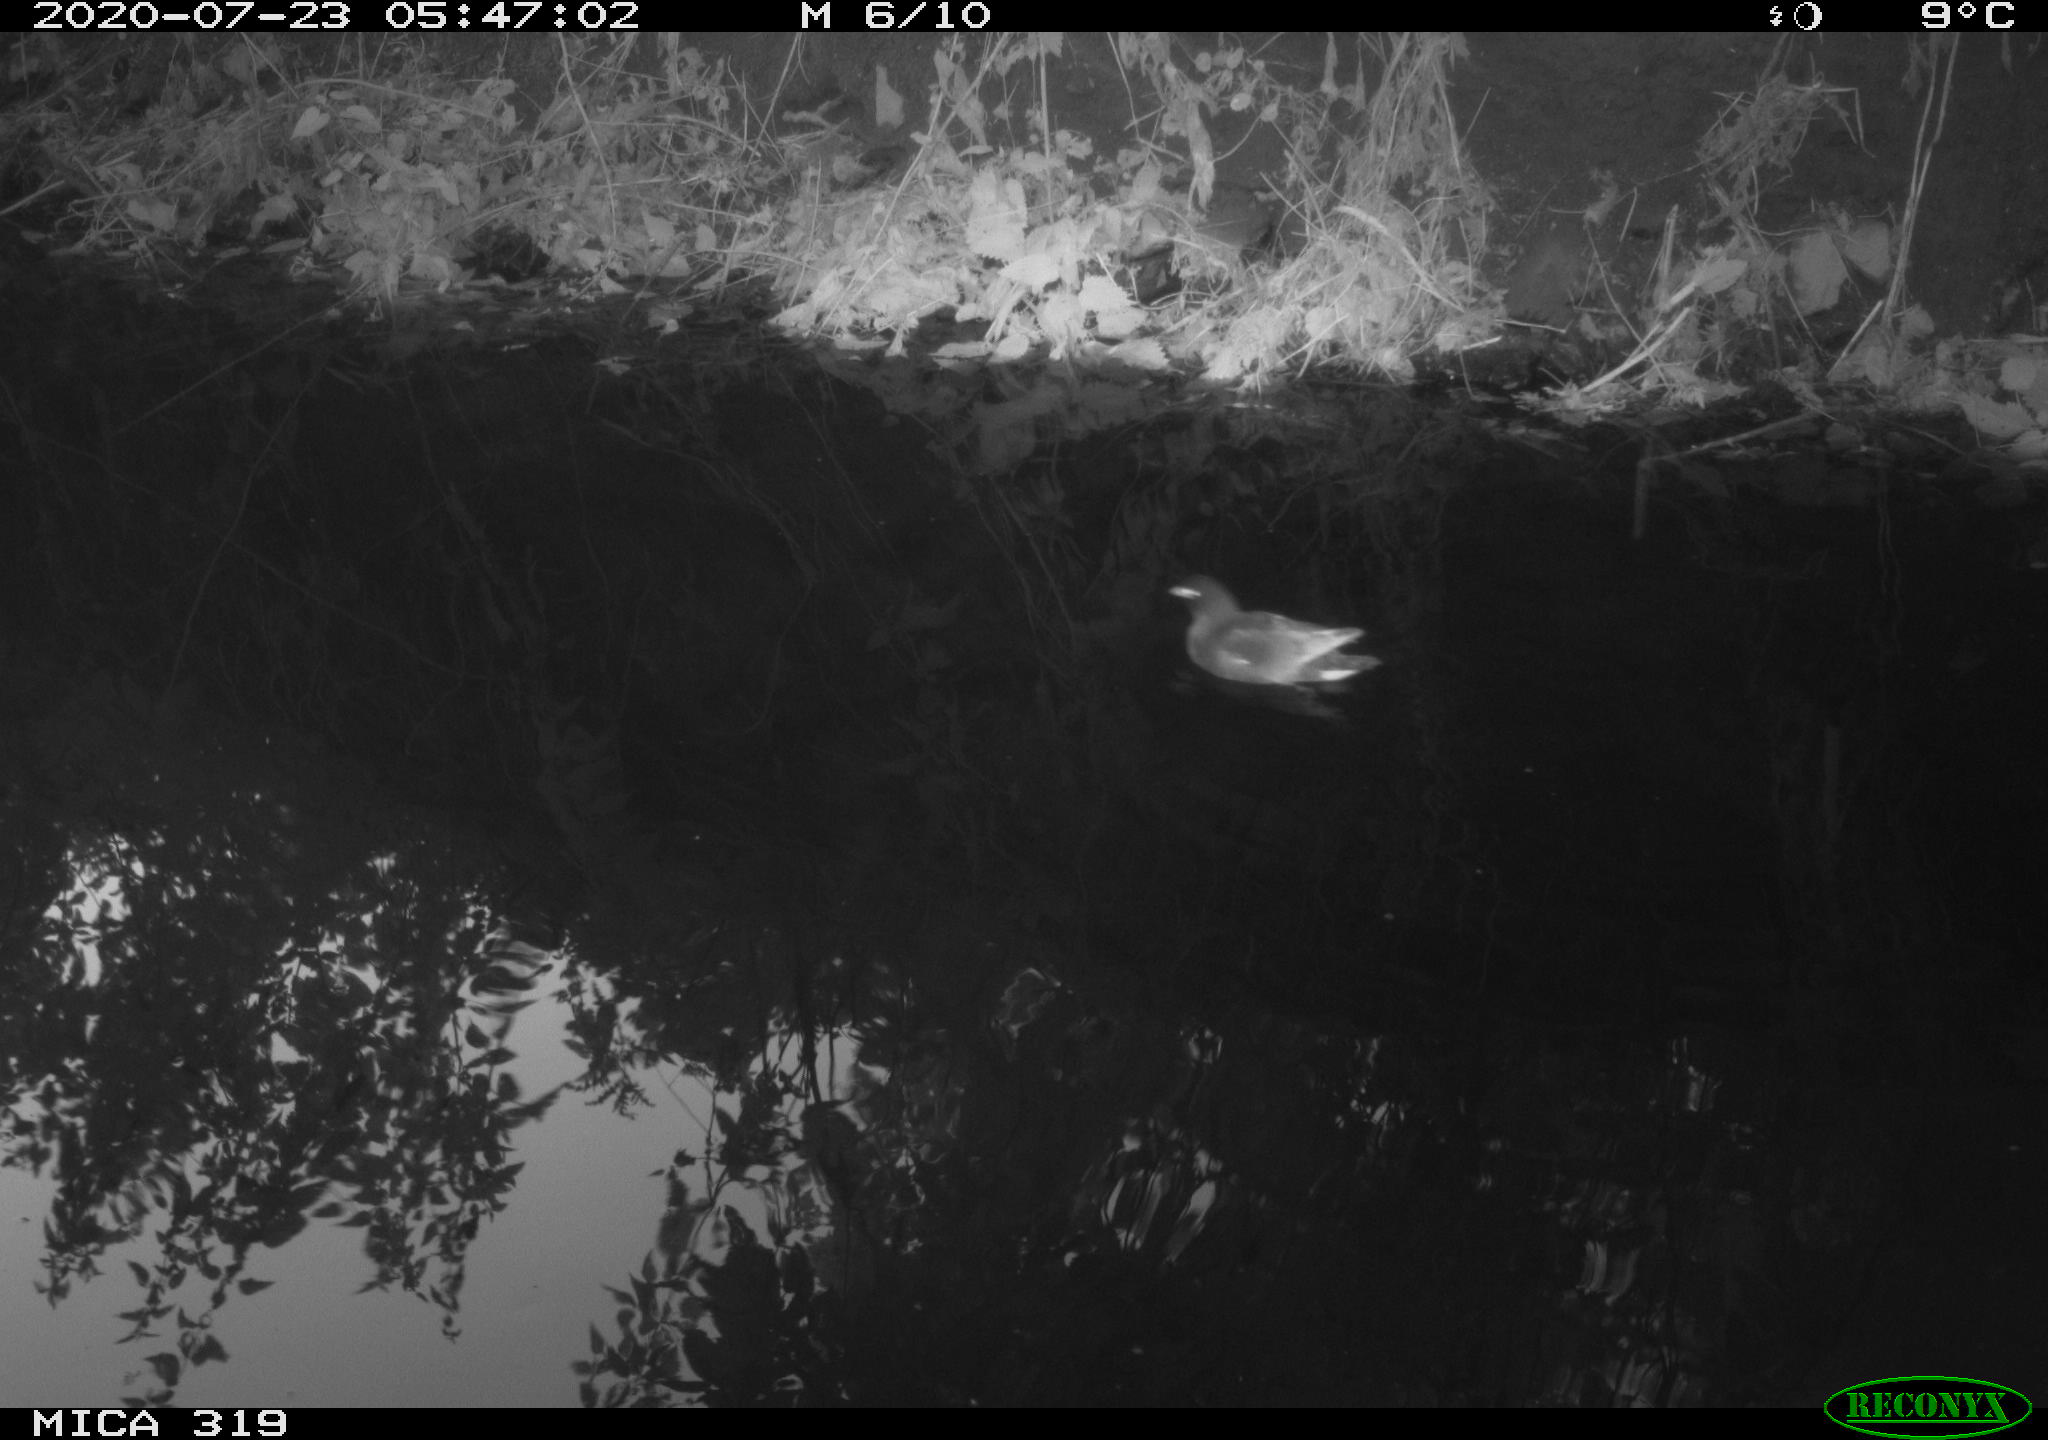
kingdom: Animalia
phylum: Chordata
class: Aves
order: Gruiformes
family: Rallidae
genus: Gallinula
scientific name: Gallinula chloropus
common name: Common moorhen
